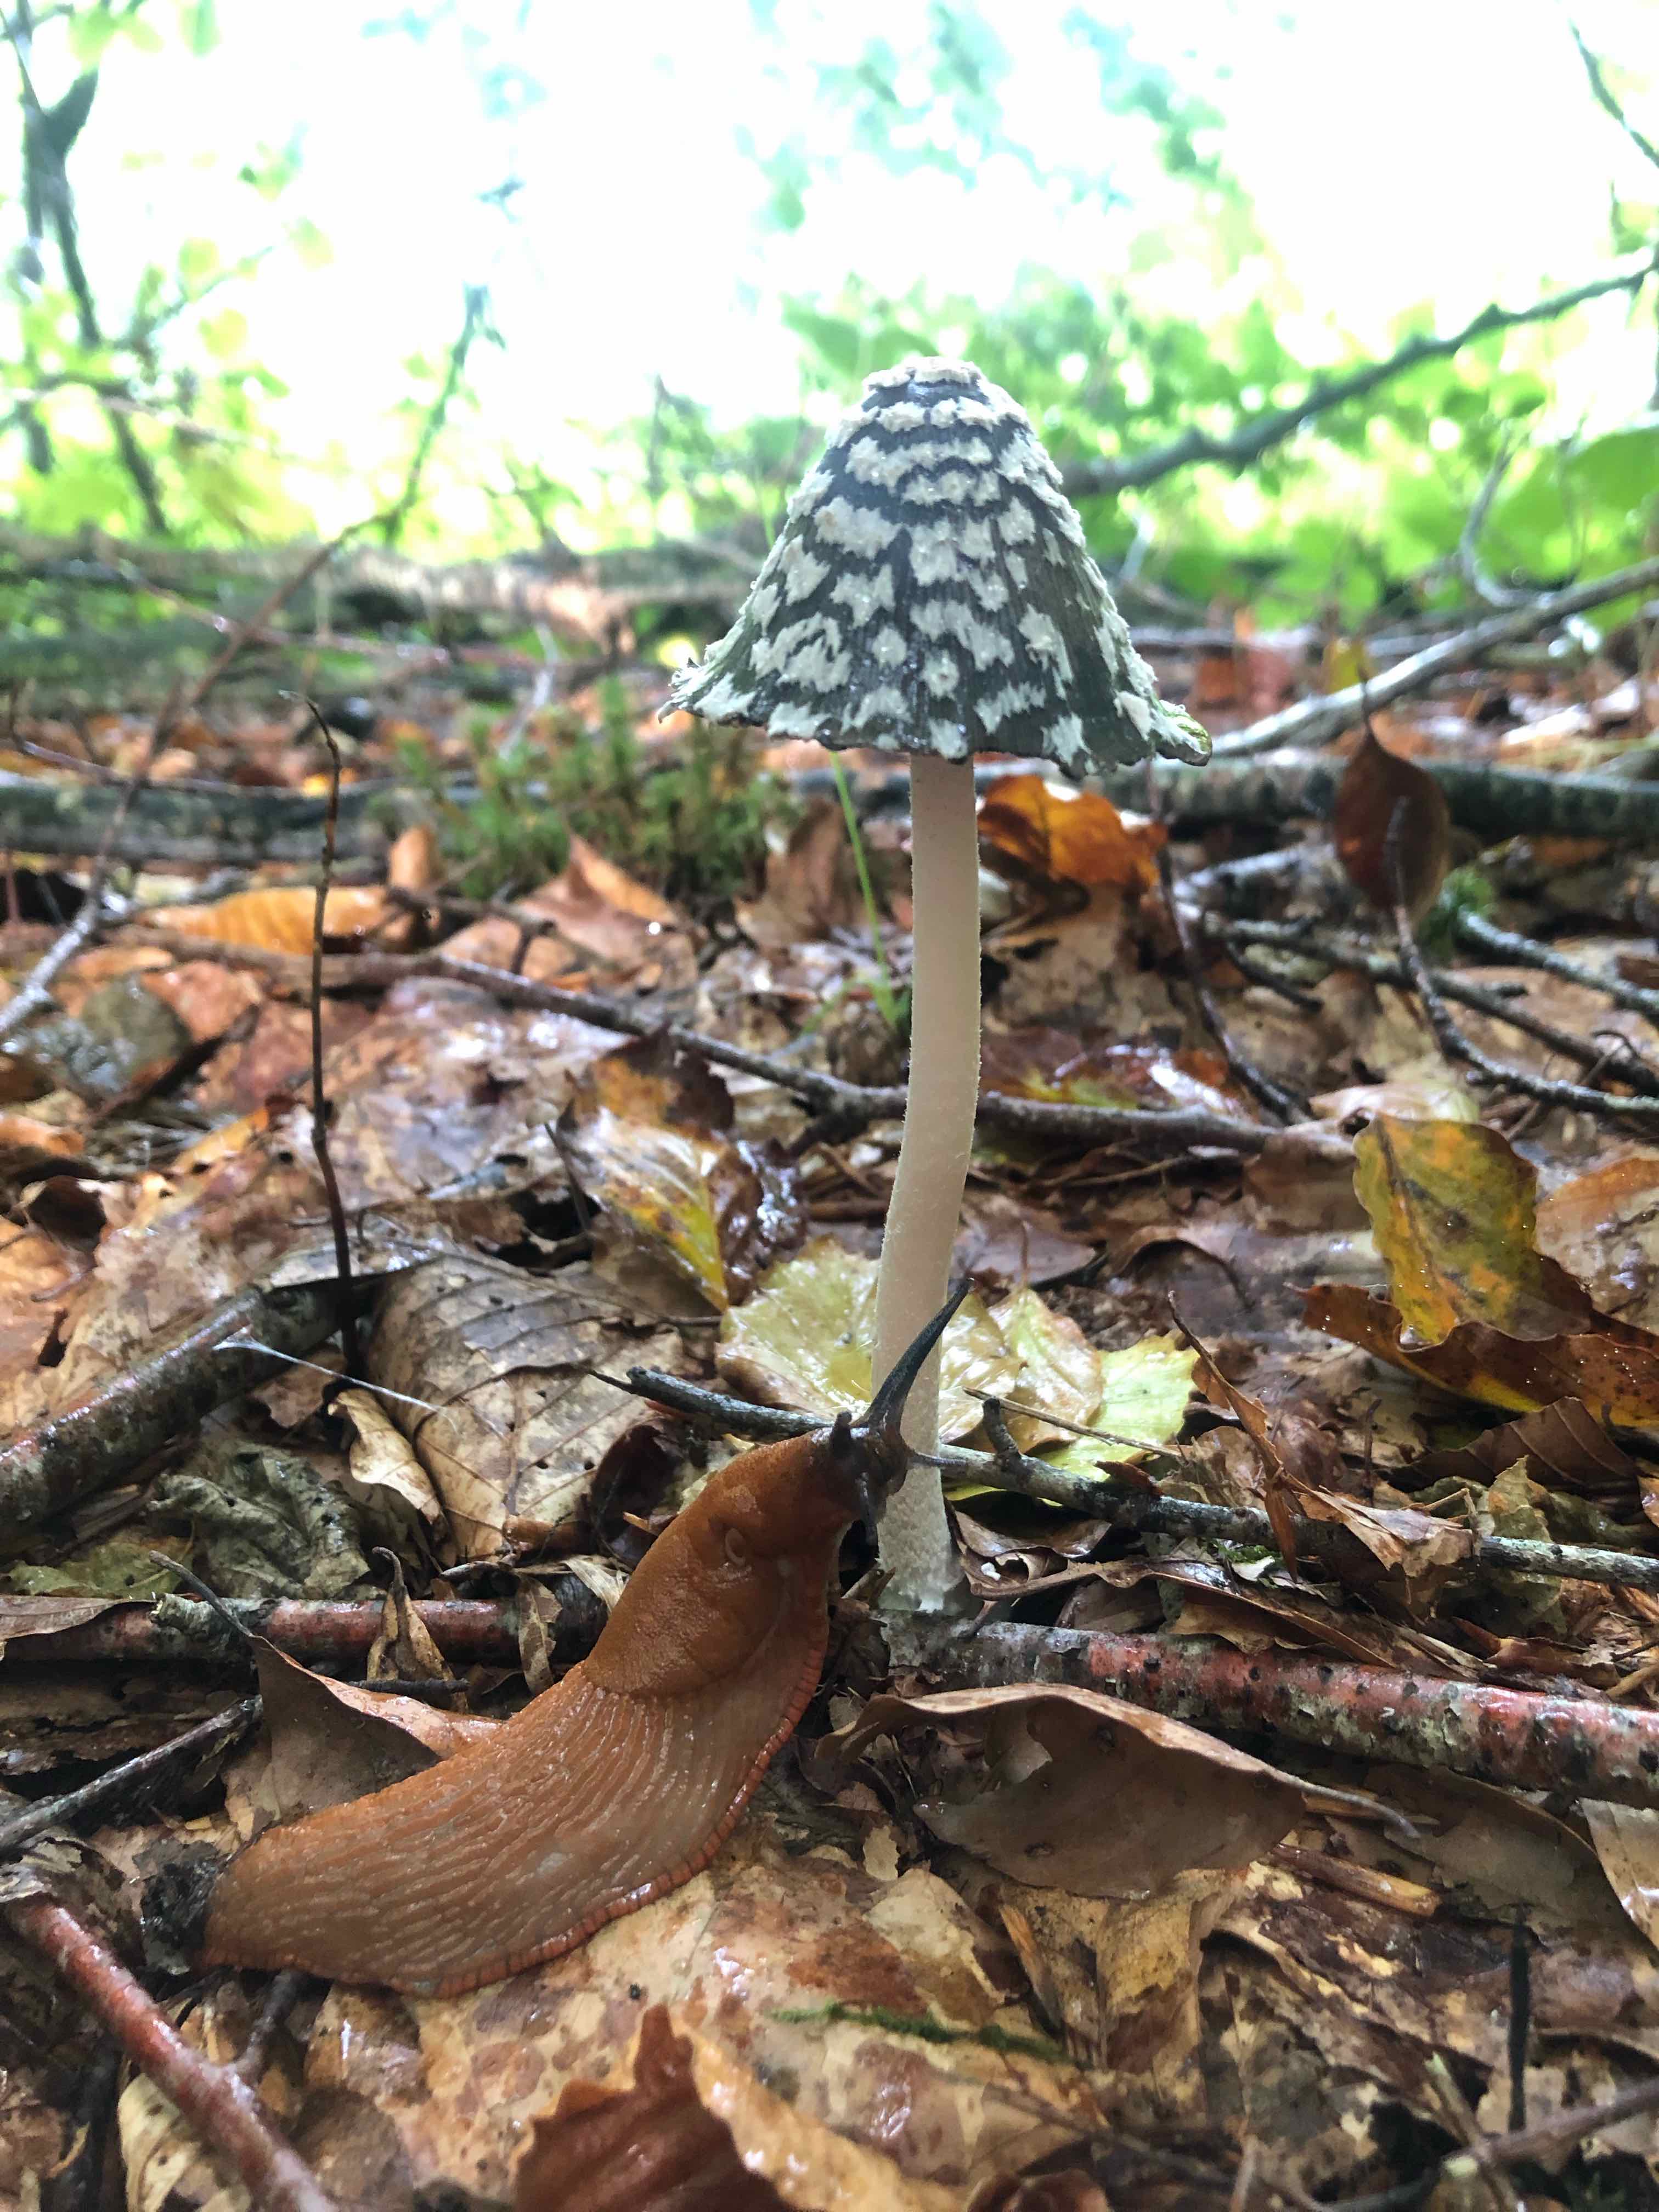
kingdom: Fungi
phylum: Basidiomycota
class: Agaricomycetes
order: Agaricales
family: Psathyrellaceae
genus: Coprinopsis
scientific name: Coprinopsis picacea
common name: skade-blækhat
